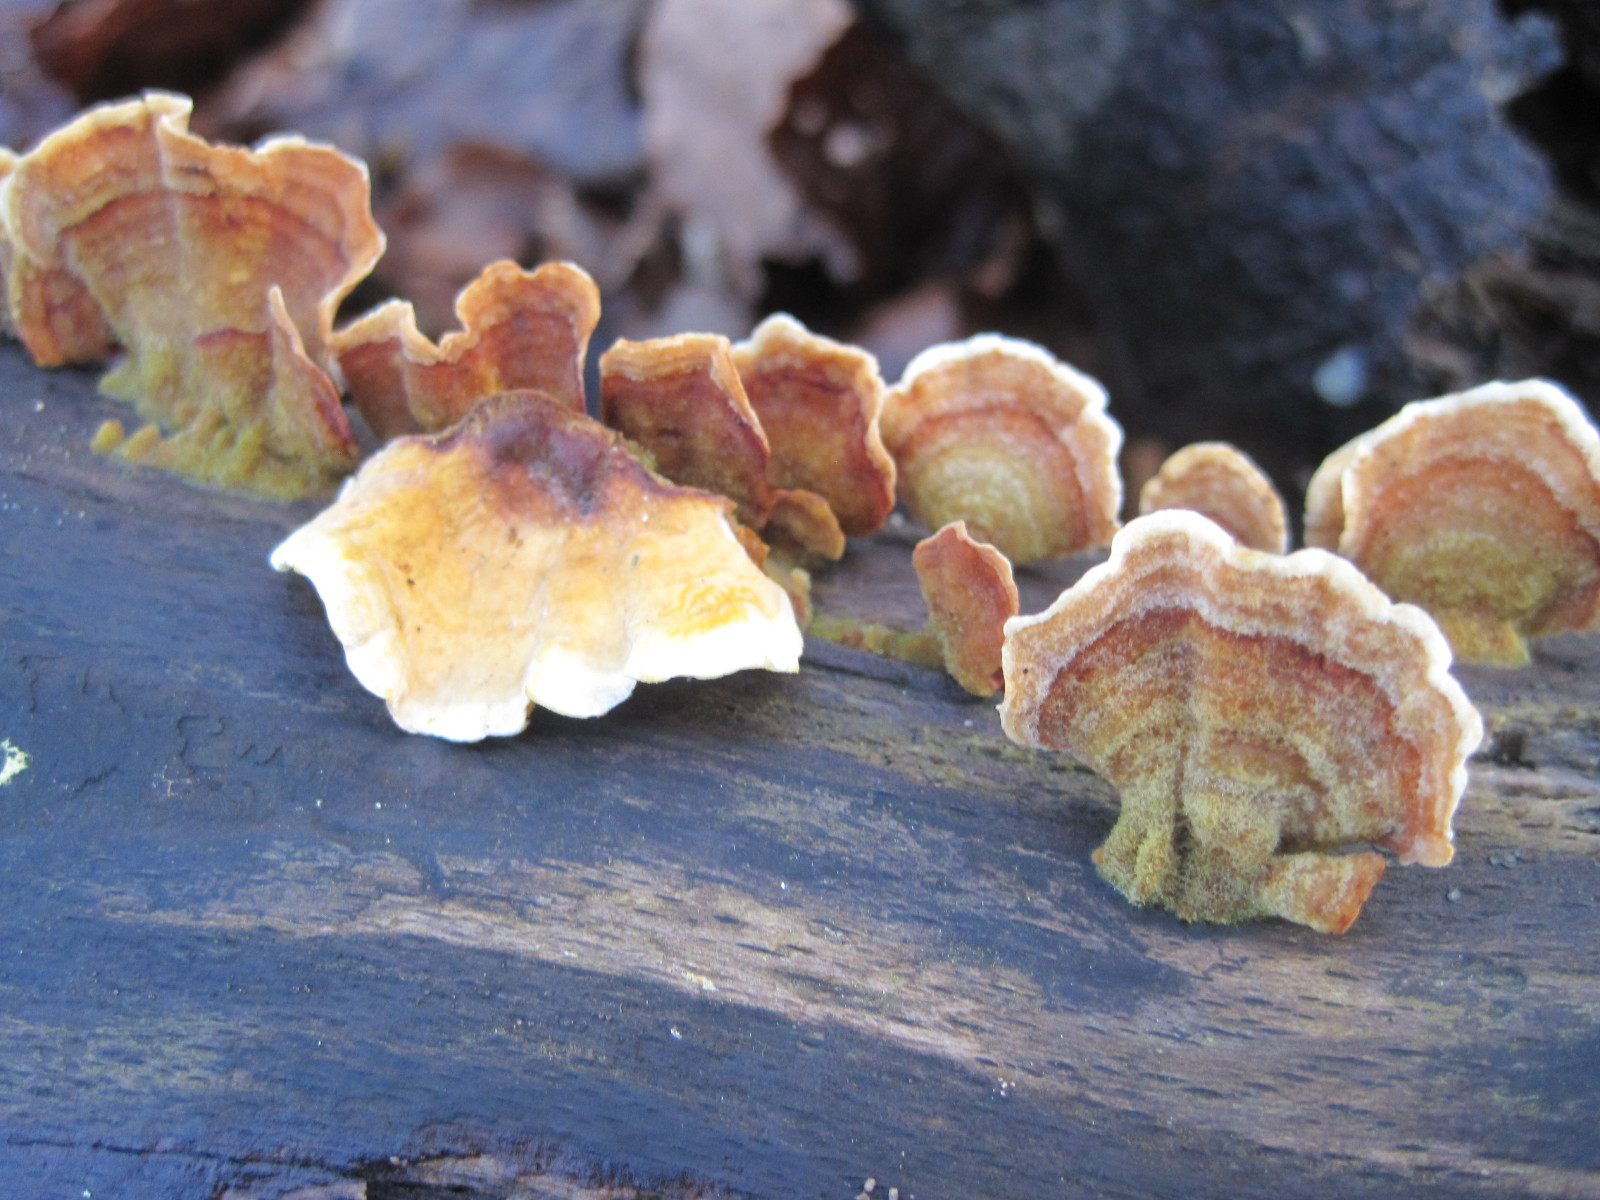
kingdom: Fungi
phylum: Basidiomycota
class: Agaricomycetes
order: Russulales
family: Stereaceae
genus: Stereum
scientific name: Stereum subtomentosum
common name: smuk lædersvamp
